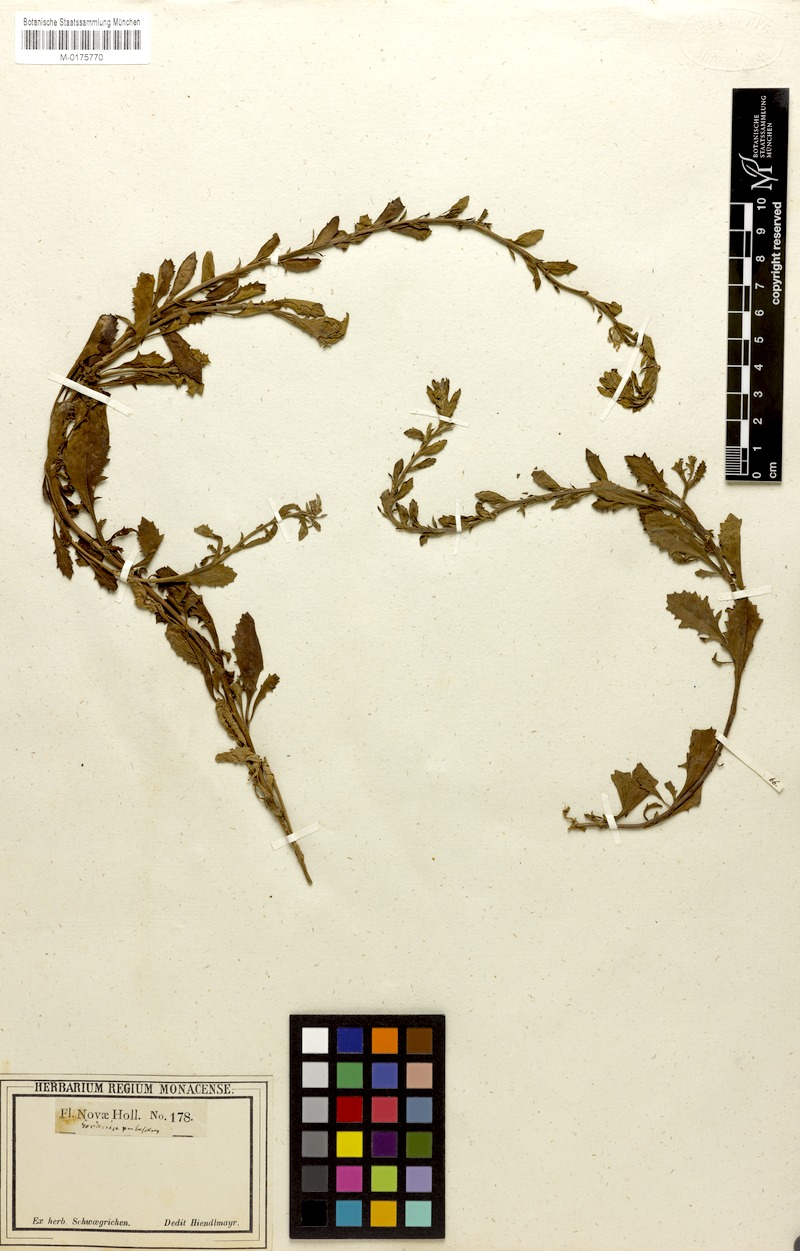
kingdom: Plantae
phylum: Tracheophyta
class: Magnoliopsida
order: Asterales
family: Goodeniaceae
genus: Scaevola
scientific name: Scaevola albida
